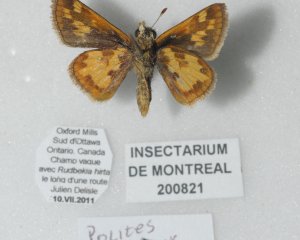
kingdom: Animalia
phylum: Arthropoda
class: Insecta
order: Lepidoptera
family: Hesperiidae
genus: Polites
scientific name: Polites coras
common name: Peck's Skipper
